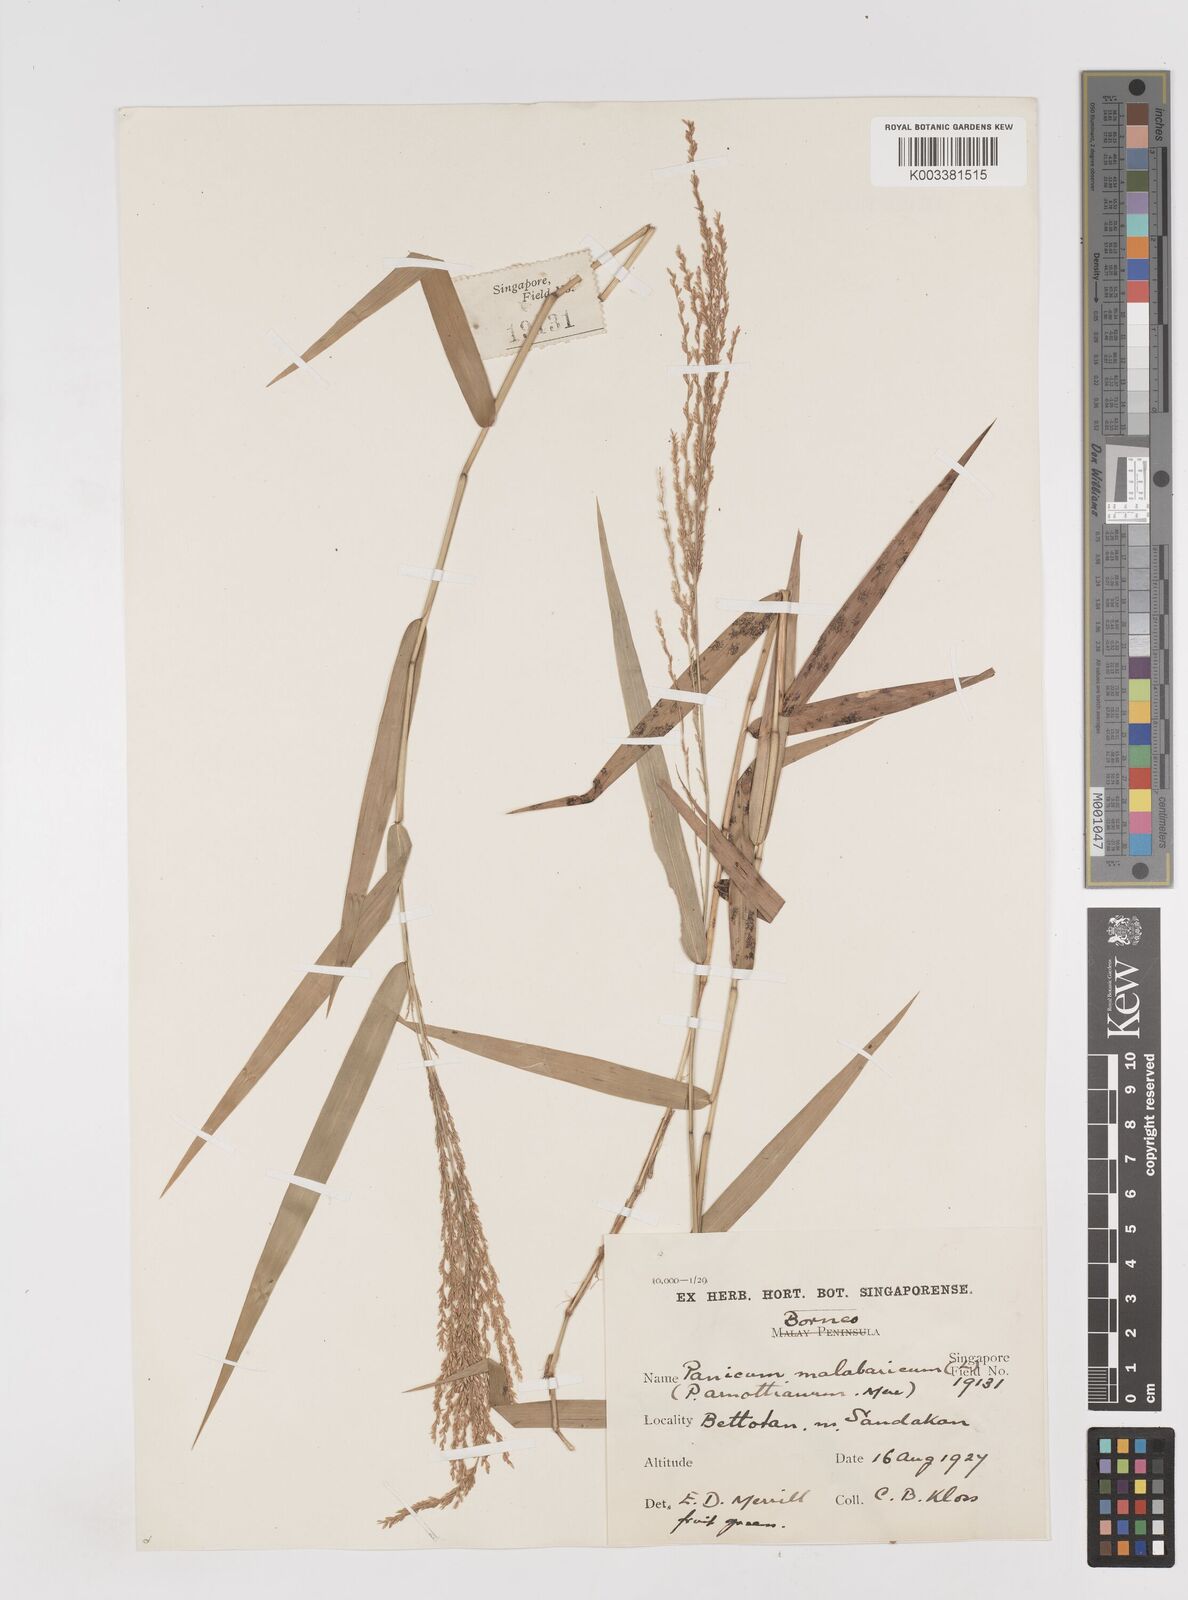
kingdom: Plantae
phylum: Tracheophyta
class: Liliopsida
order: Poales
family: Poaceae
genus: Ottochloa
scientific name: Ottochloa nodosa
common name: Slender-panic grass
